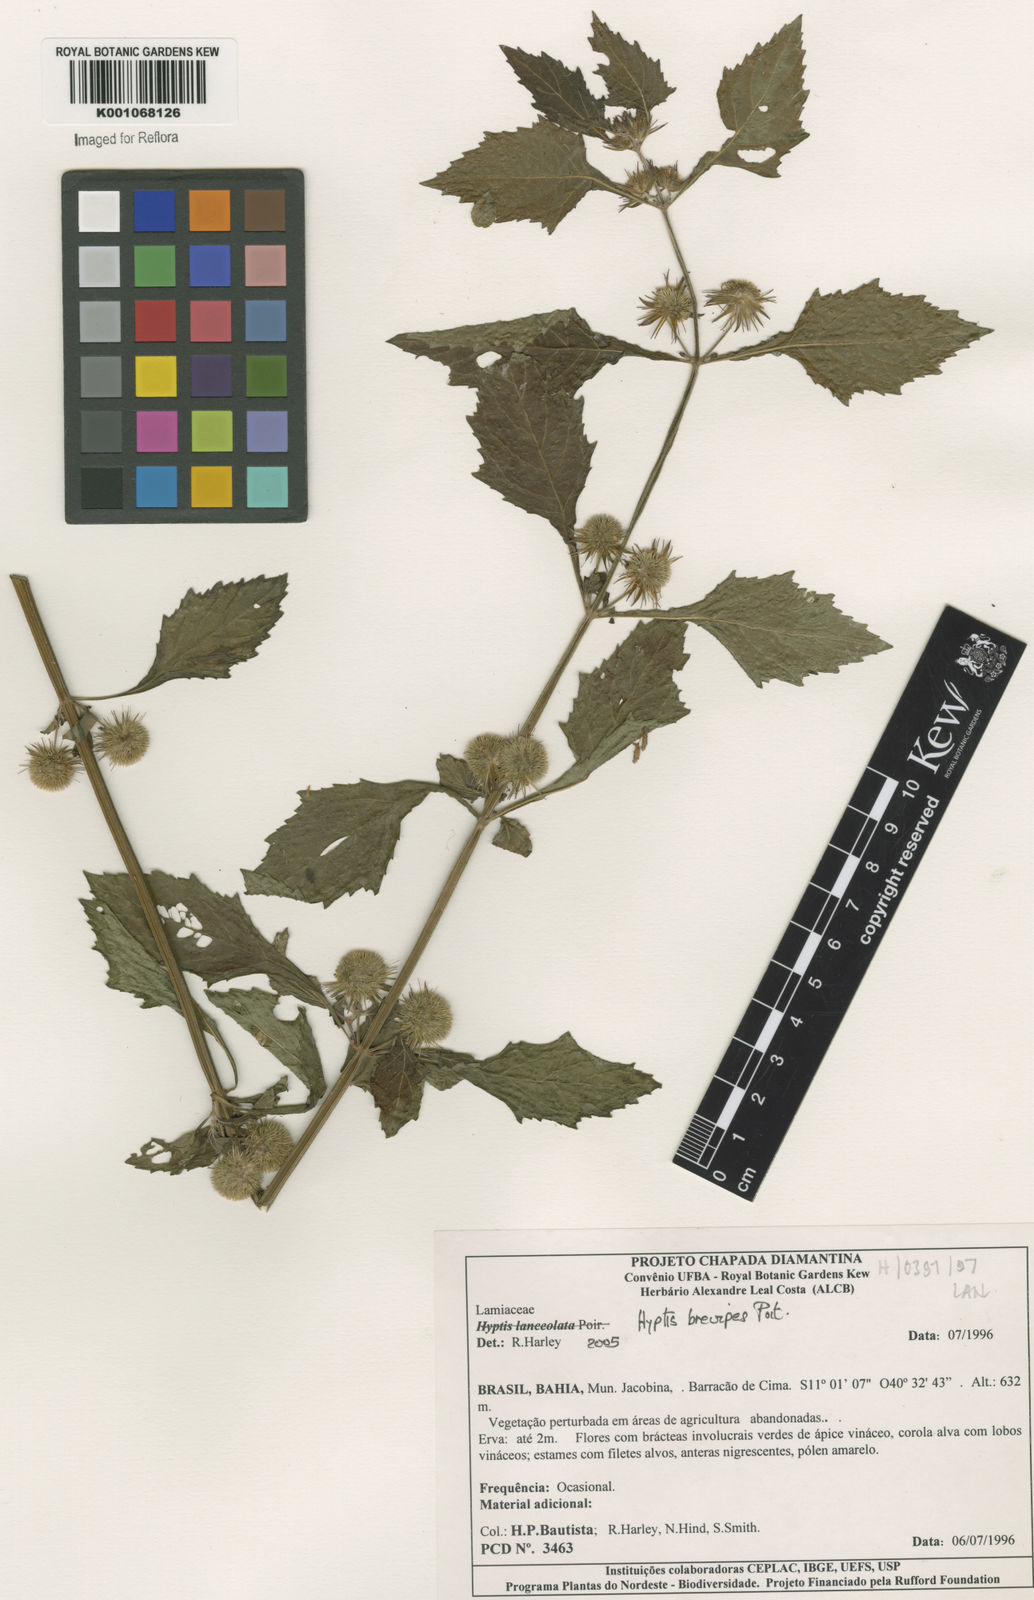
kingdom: Plantae
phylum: Tracheophyta
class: Magnoliopsida
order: Lamiales
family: Lamiaceae
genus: Hyptis
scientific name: Hyptis brevipes
